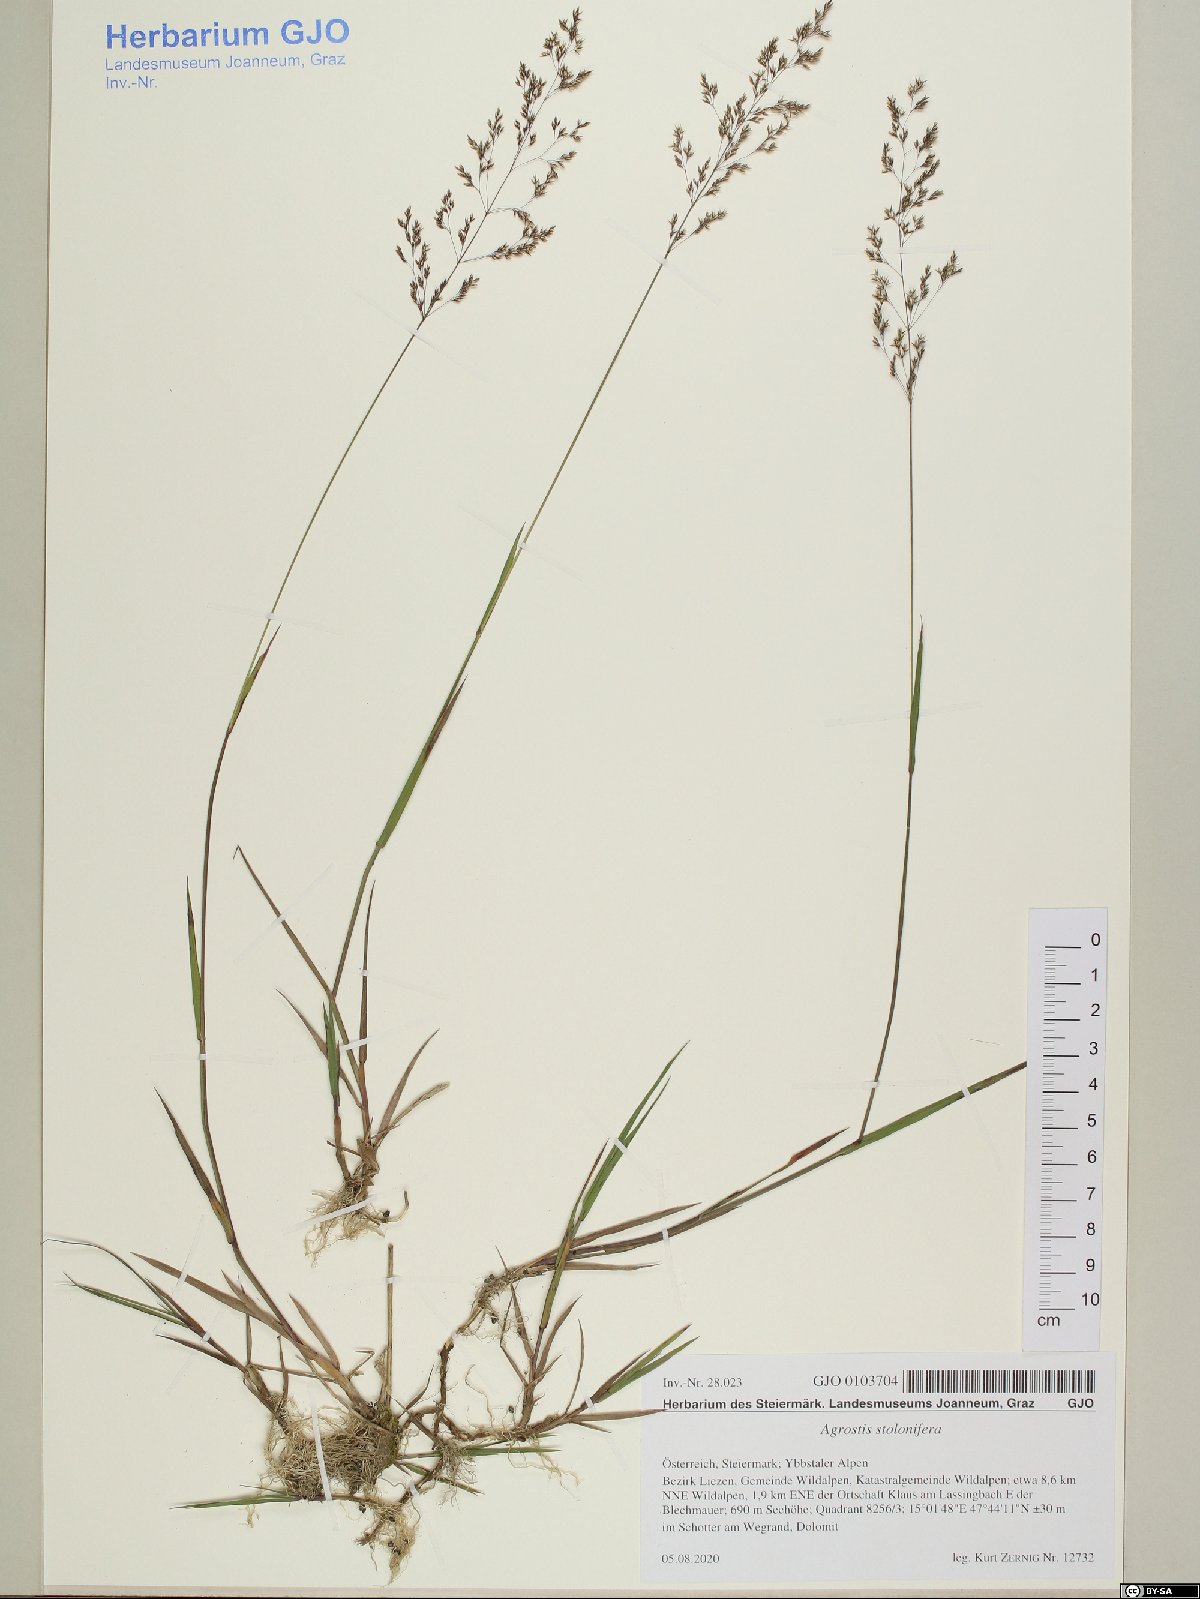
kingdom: Plantae
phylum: Tracheophyta
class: Liliopsida
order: Poales
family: Poaceae
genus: Agrostis
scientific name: Agrostis stolonifera
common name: Creeping bentgrass
